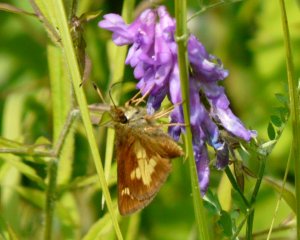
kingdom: Animalia
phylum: Arthropoda
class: Insecta
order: Lepidoptera
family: Hesperiidae
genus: Poanes
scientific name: Poanes massasoit
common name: Mulberry Wing
